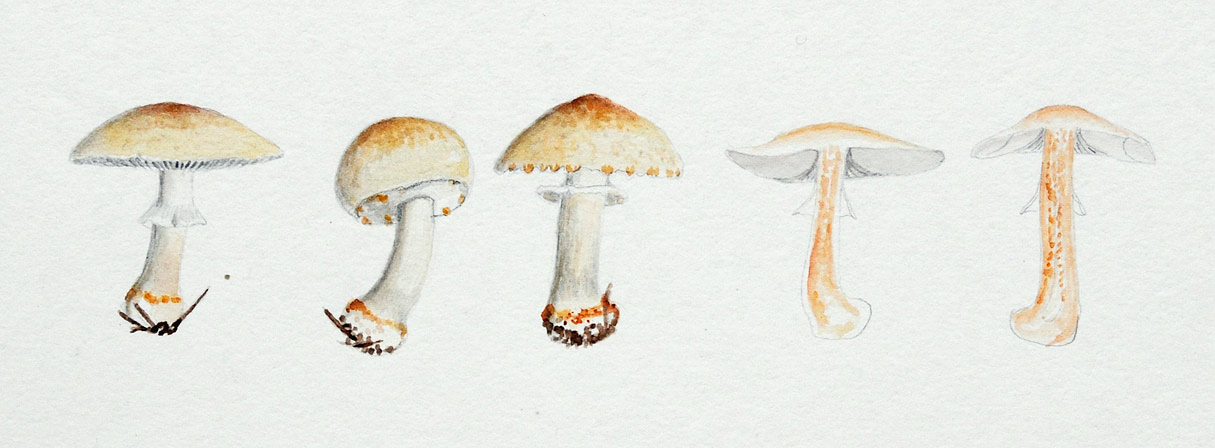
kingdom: Fungi
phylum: Basidiomycota
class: Agaricomycetes
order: Agaricales
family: Agaricaceae
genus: Agaricus
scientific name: Agaricus luteomaculatus
